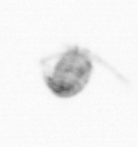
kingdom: Animalia
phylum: Arthropoda
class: Copepoda
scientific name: Copepoda
